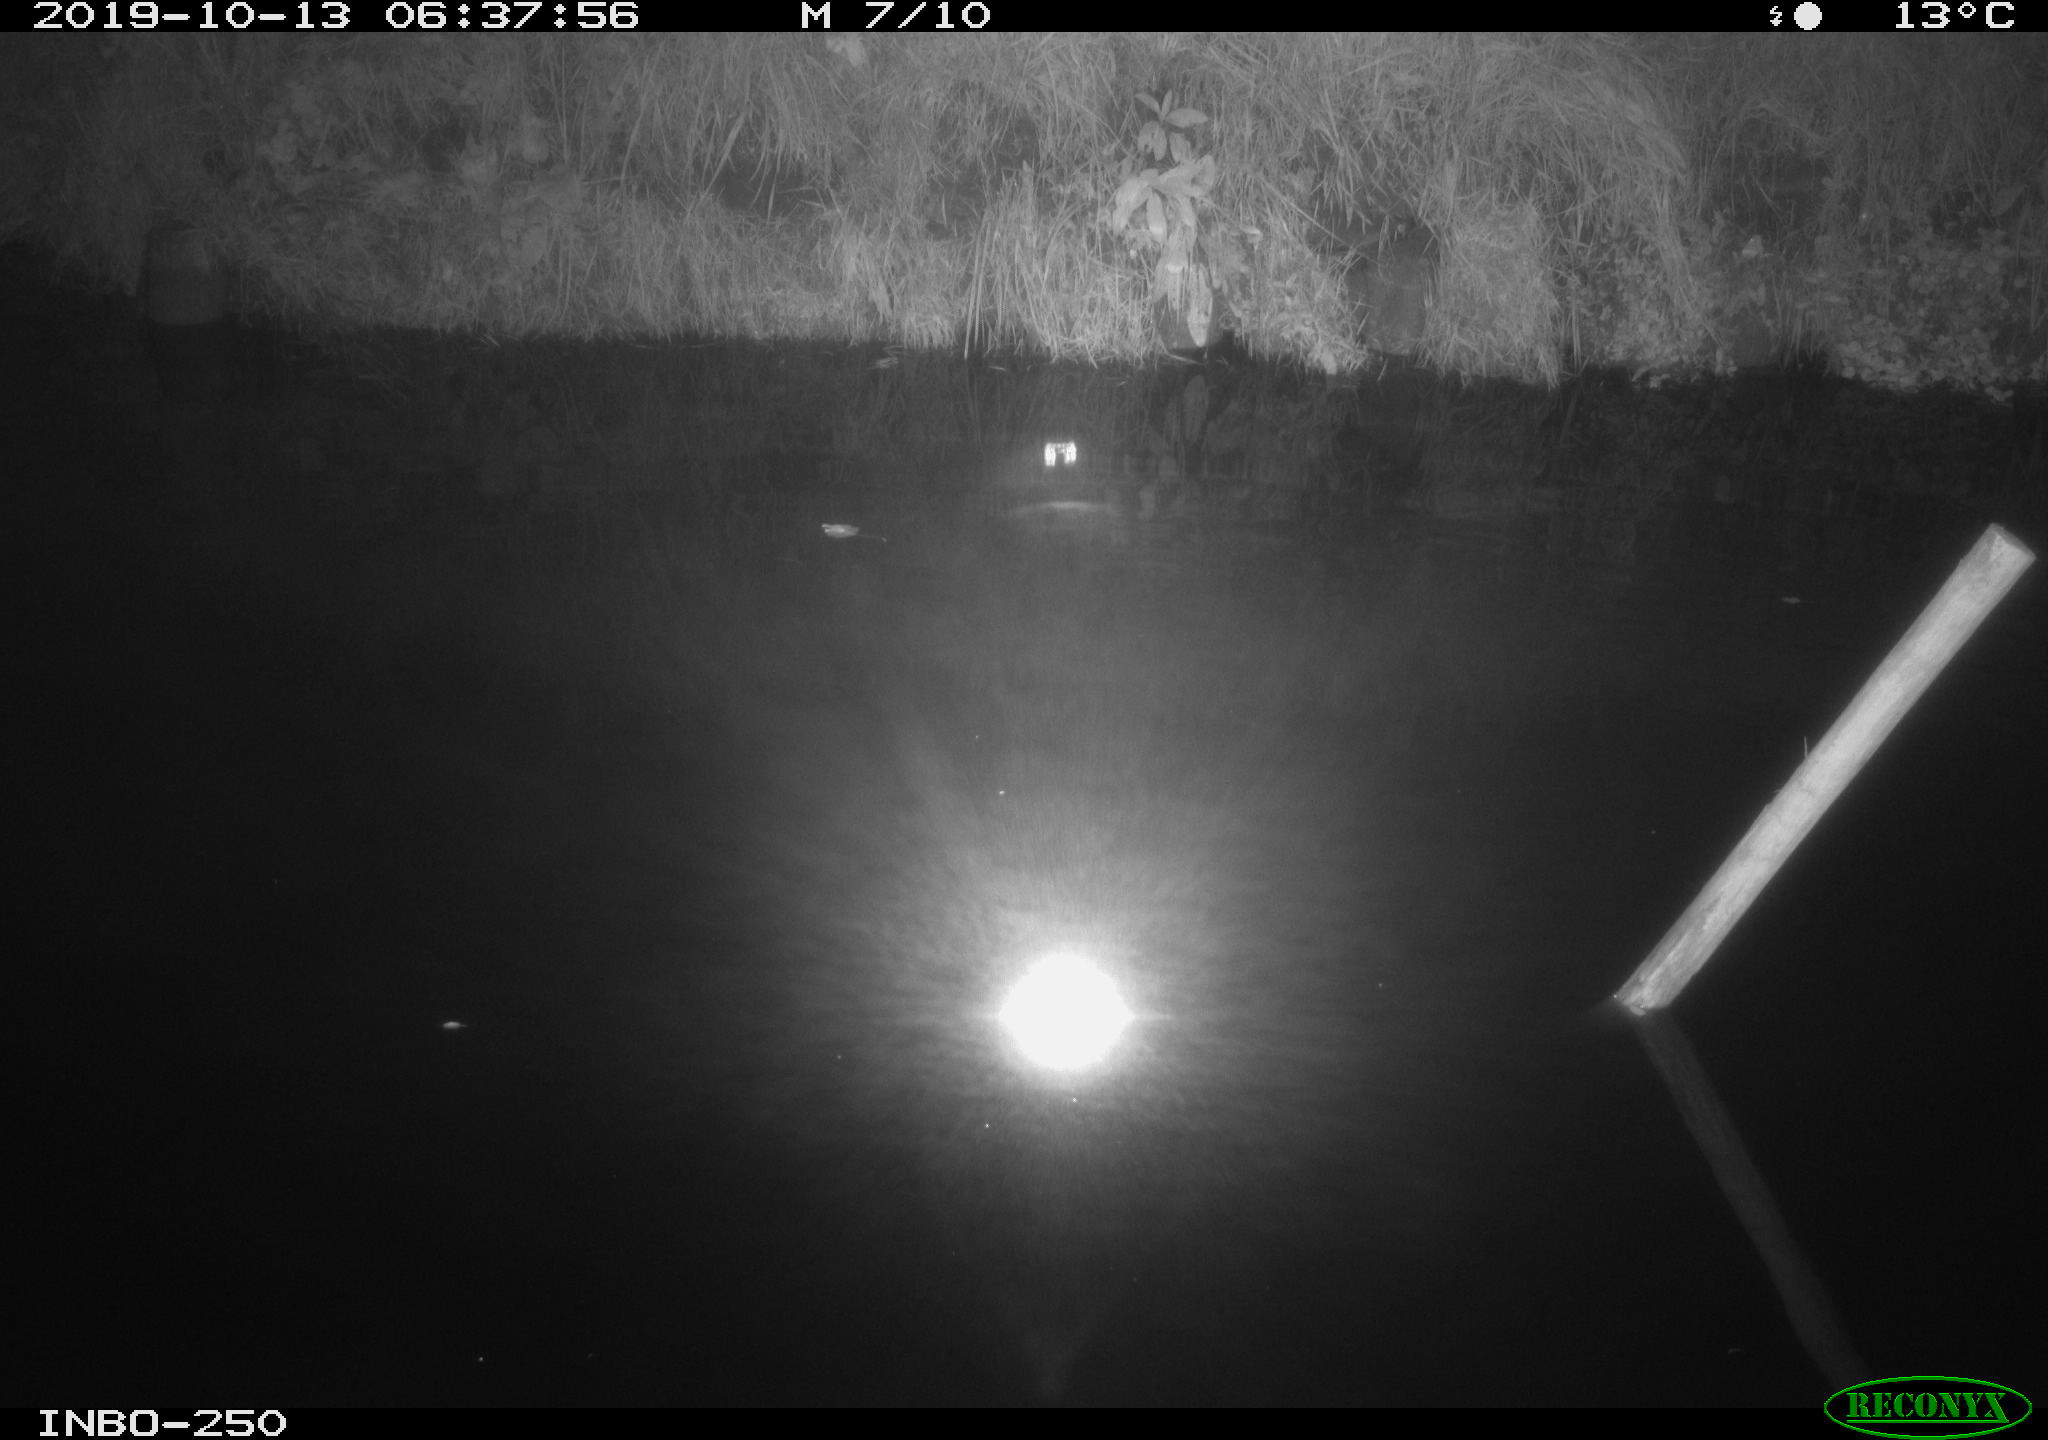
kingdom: Animalia
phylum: Chordata
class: Aves
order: Anseriformes
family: Anatidae
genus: Anas
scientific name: Anas platyrhynchos
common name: Mallard
